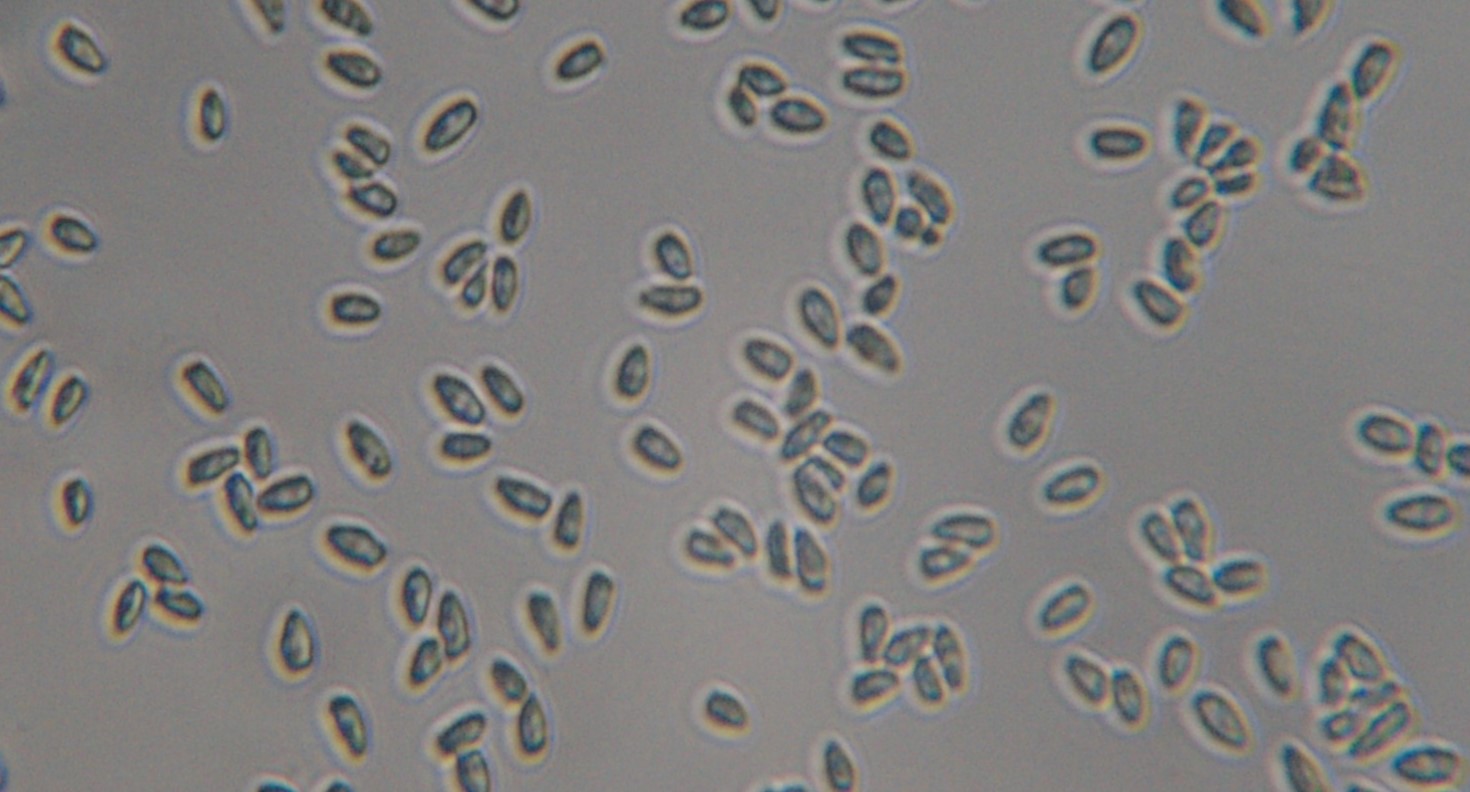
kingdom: Fungi
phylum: Basidiomycota
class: Agaricomycetes
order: Agaricales
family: Agaricaceae
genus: Lepiota
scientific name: Lepiota cristata
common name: stinkende parasolhat
